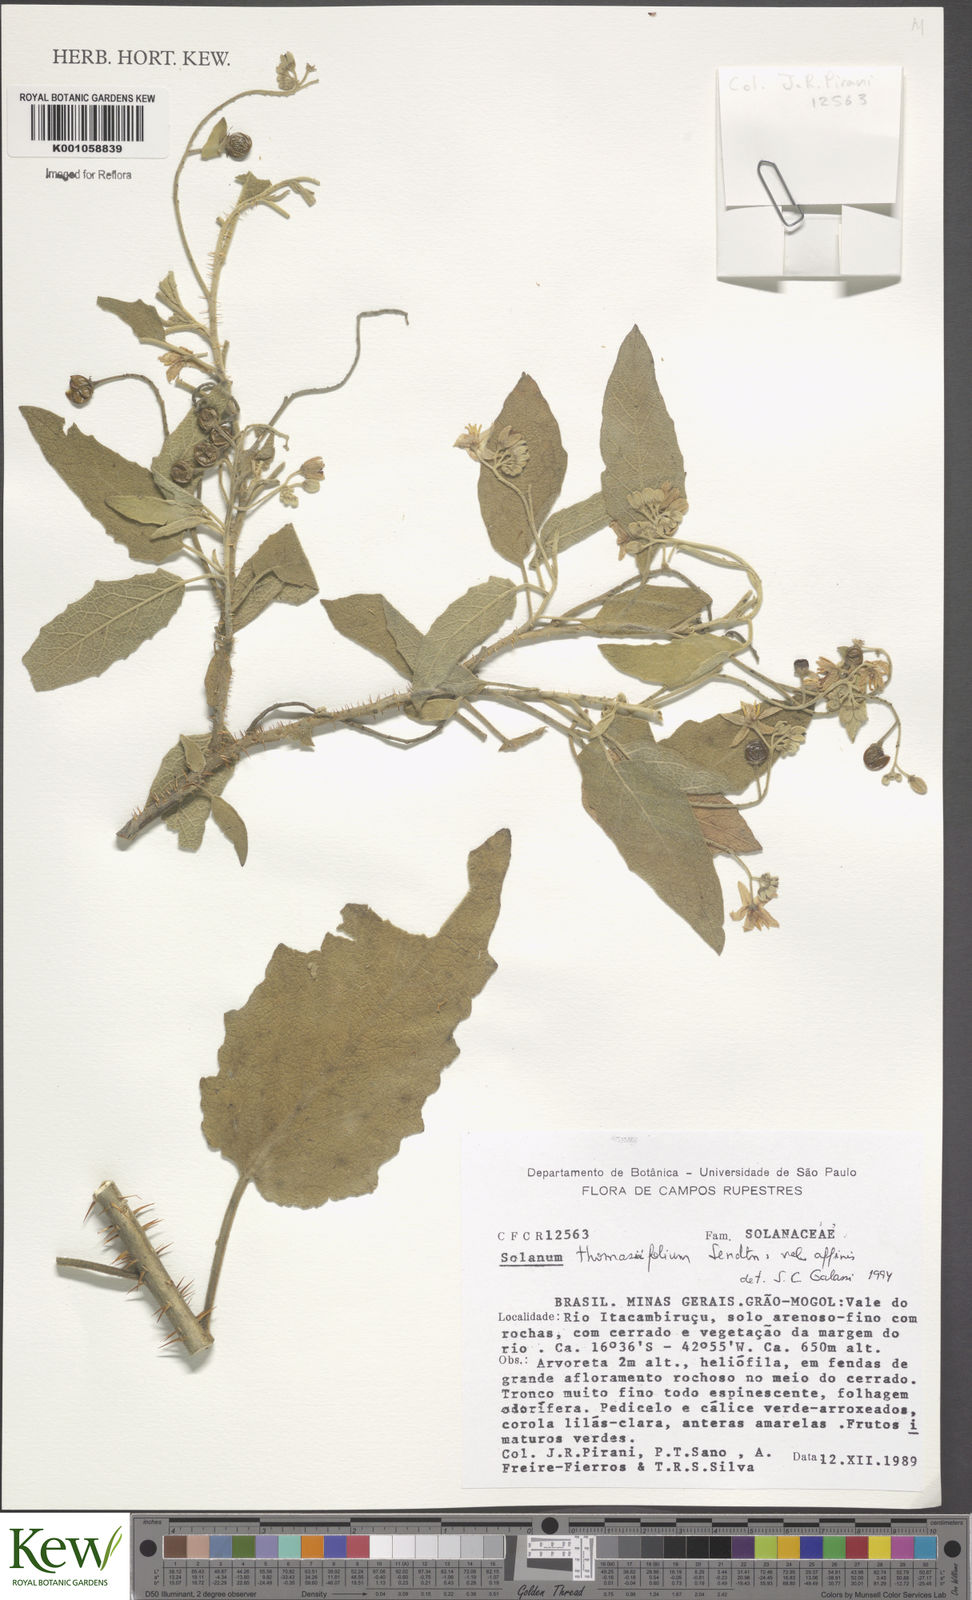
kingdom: Plantae
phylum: Tracheophyta
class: Magnoliopsida
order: Solanales
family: Solanaceae
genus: Solanum
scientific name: Solanum thomasiifolium
